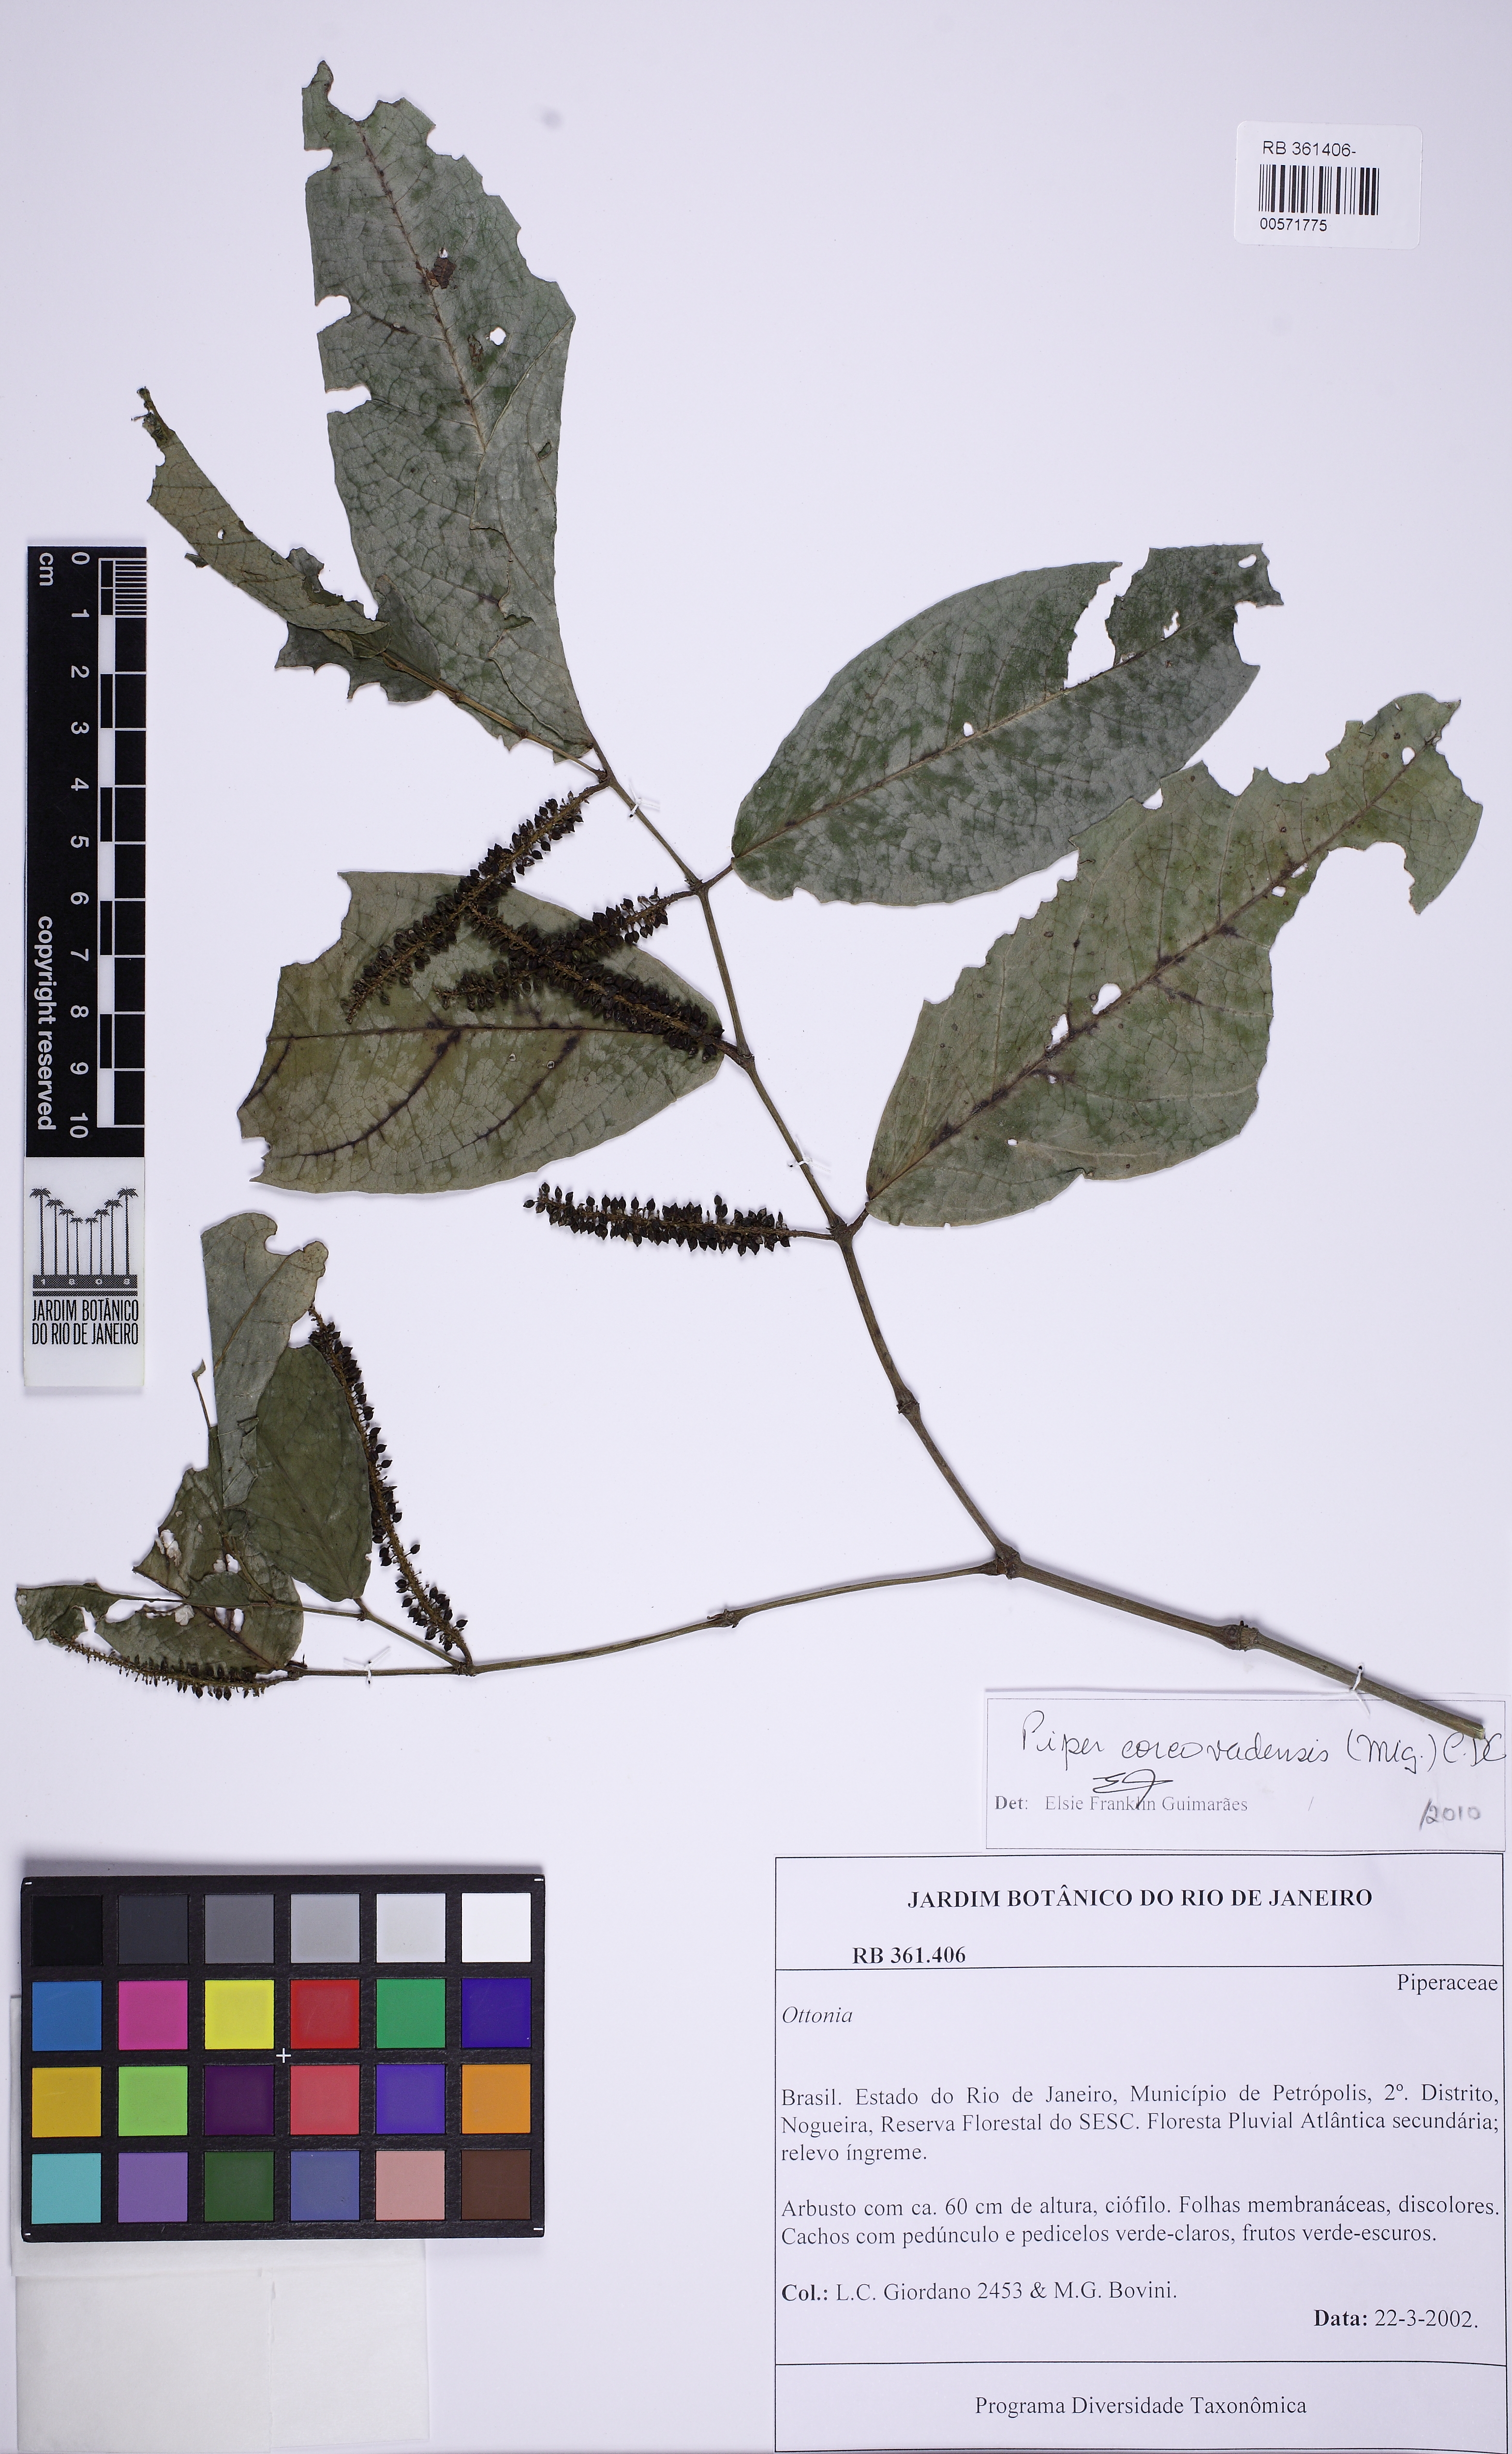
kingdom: Plantae
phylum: Tracheophyta
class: Magnoliopsida
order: Piperales
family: Piperaceae
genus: Piper
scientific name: Piper corcovadense
